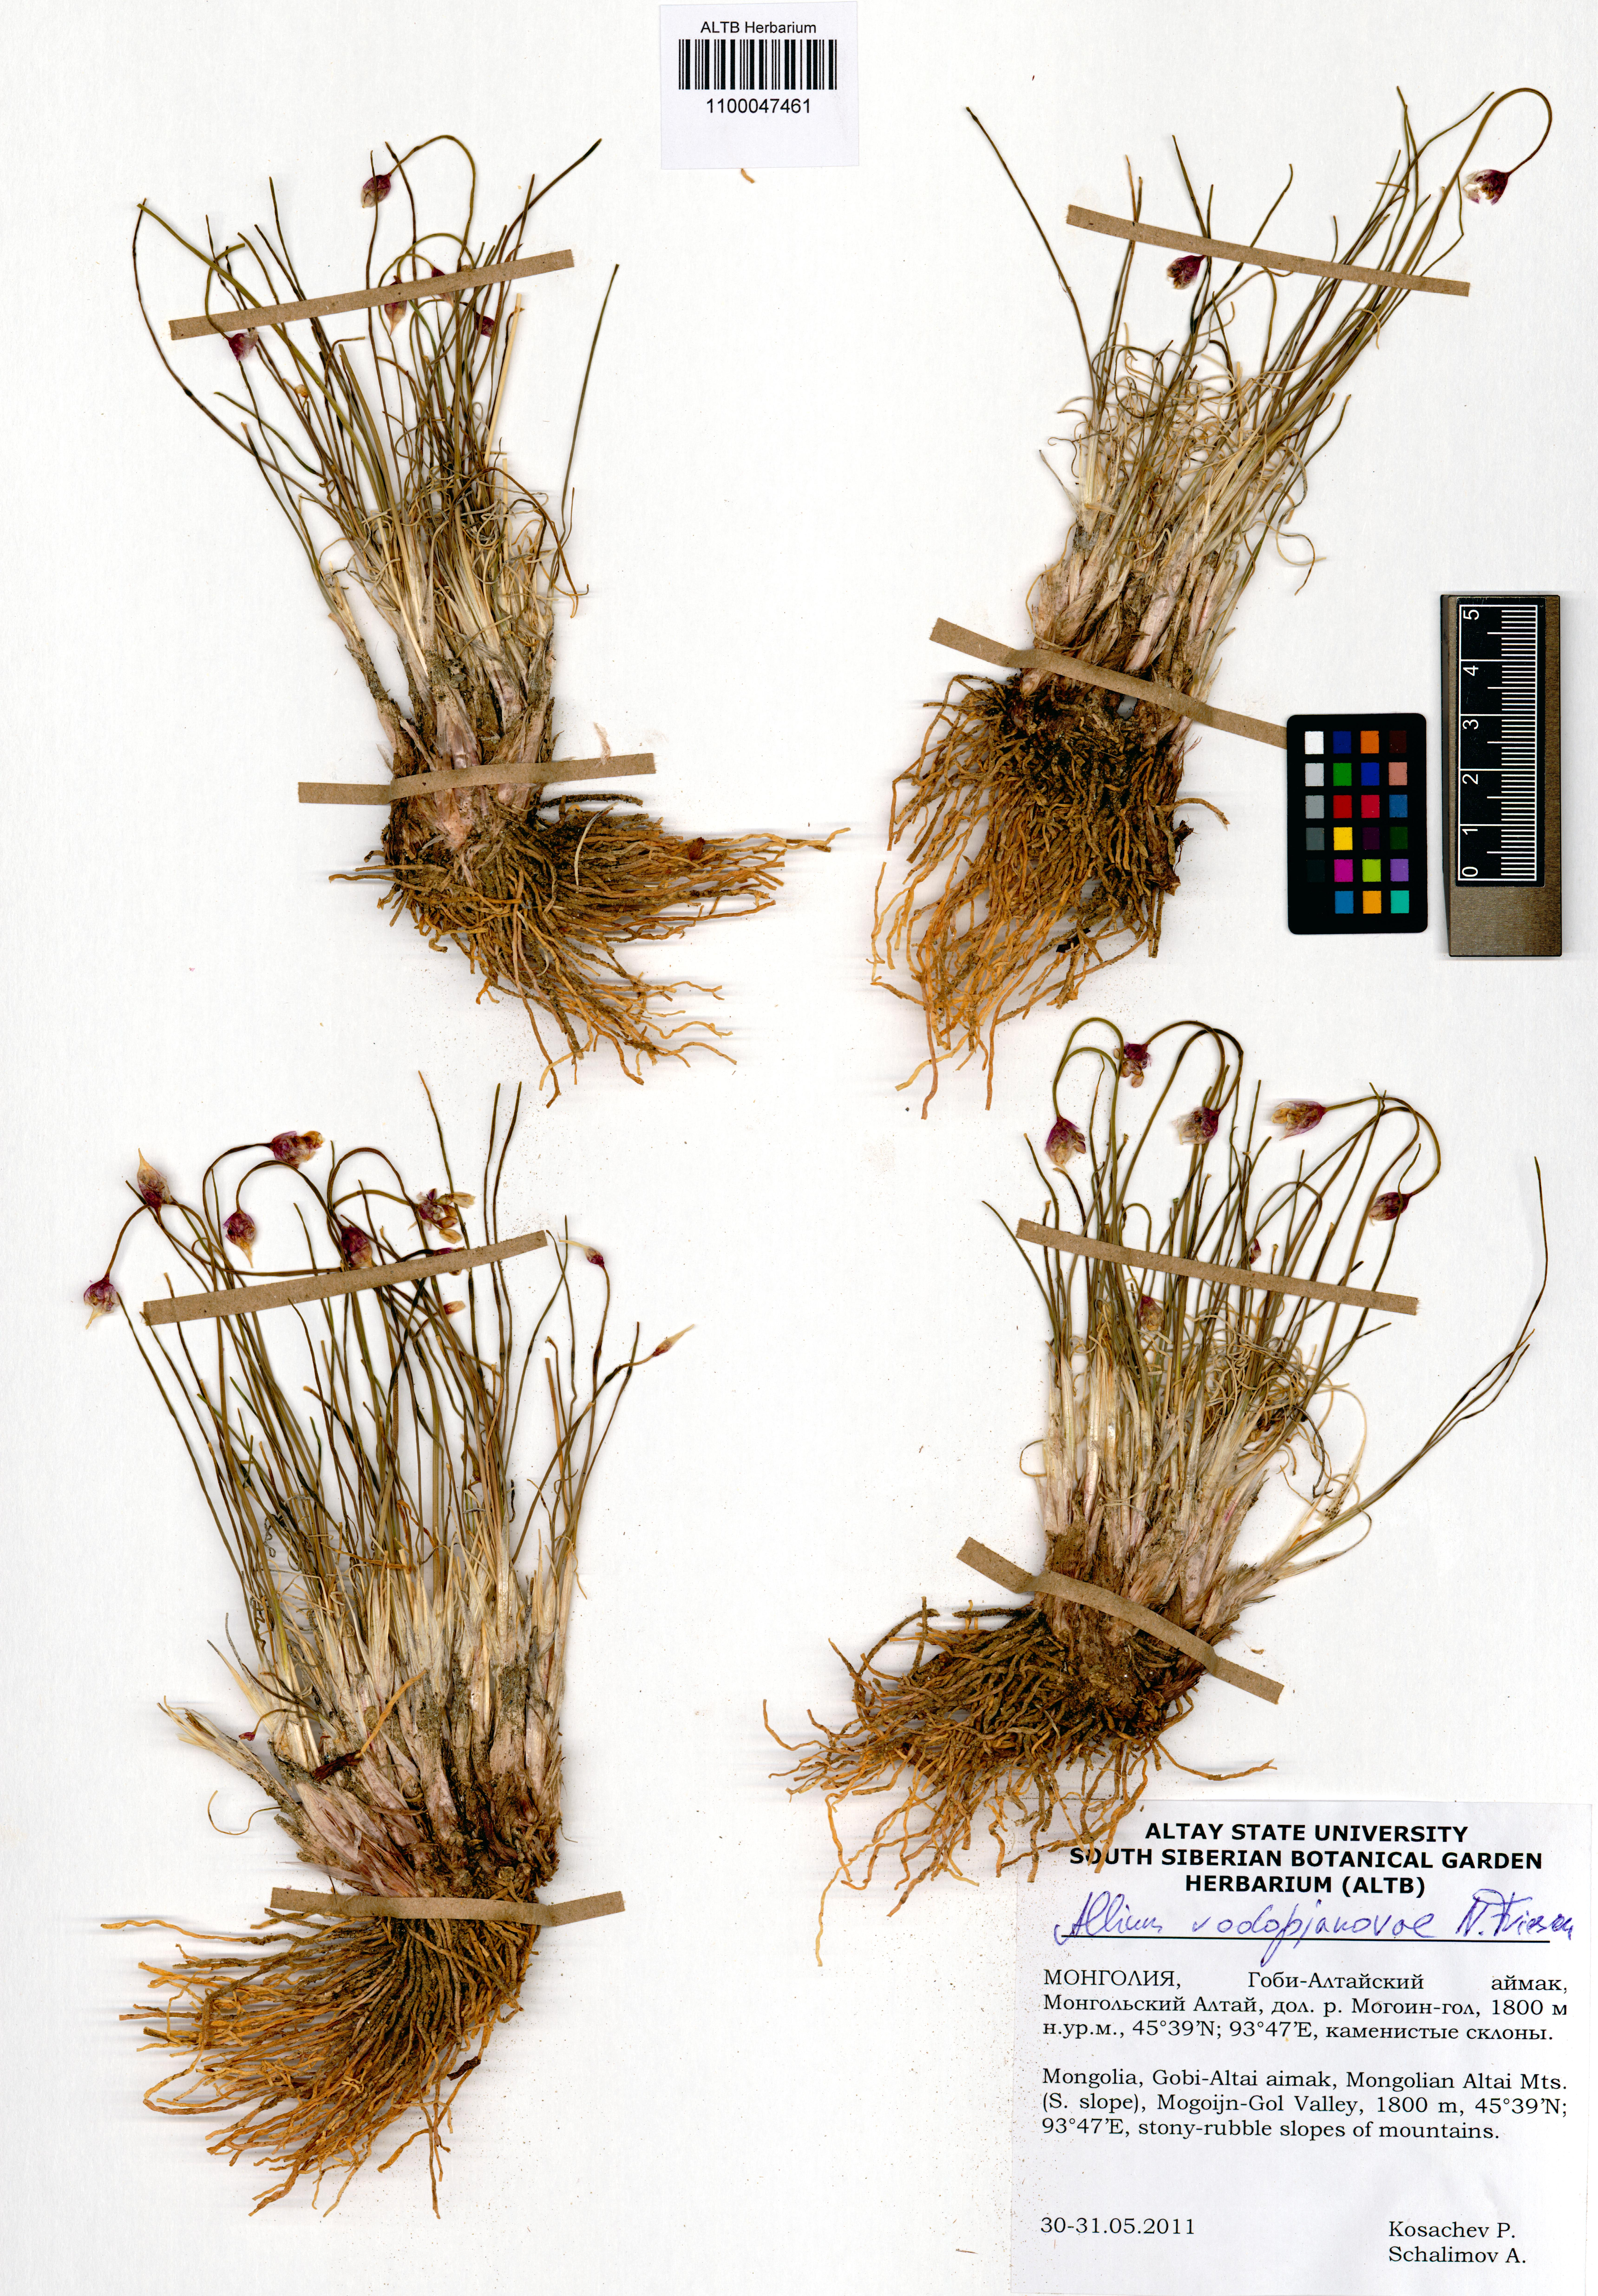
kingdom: Plantae
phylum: Tracheophyta
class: Liliopsida
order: Asparagales
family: Amaryllidaceae
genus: Allium
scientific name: Allium vodopjanovae
